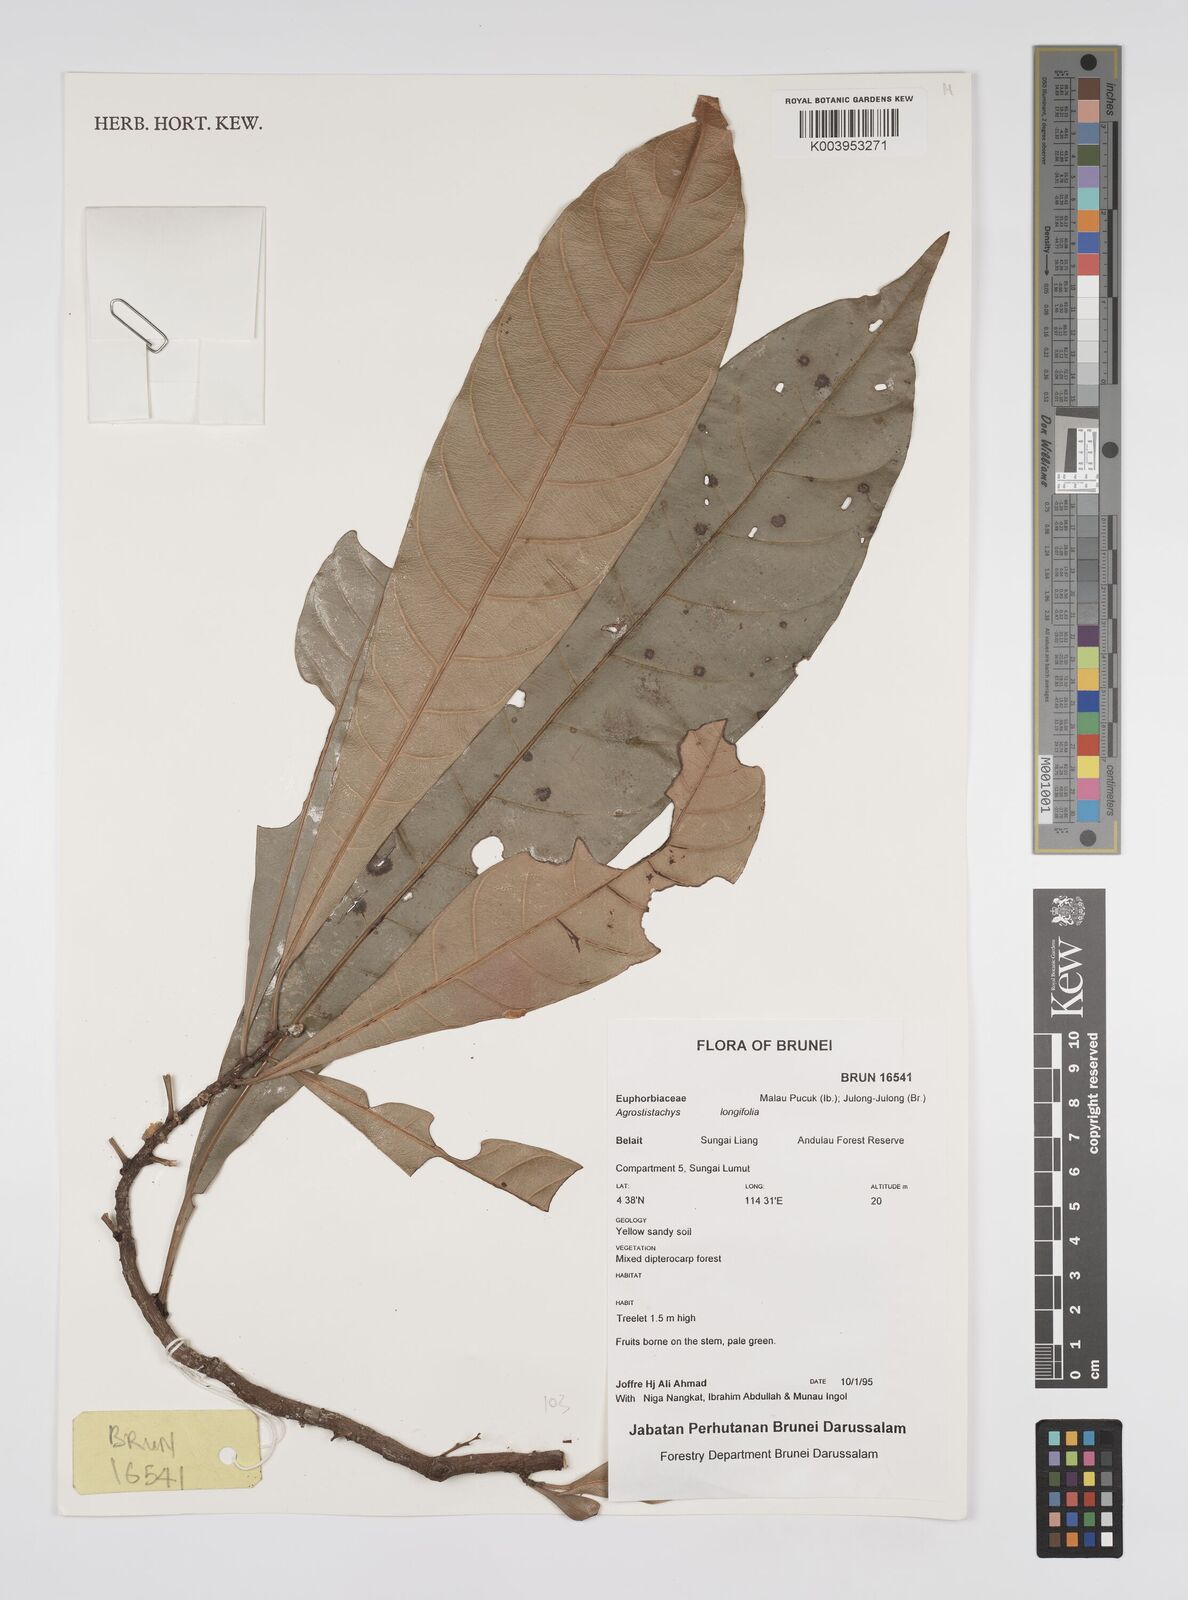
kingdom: Plantae
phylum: Tracheophyta
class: Magnoliopsida
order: Malpighiales
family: Euphorbiaceae
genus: Agrostistachys
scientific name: Agrostistachys borneensis
